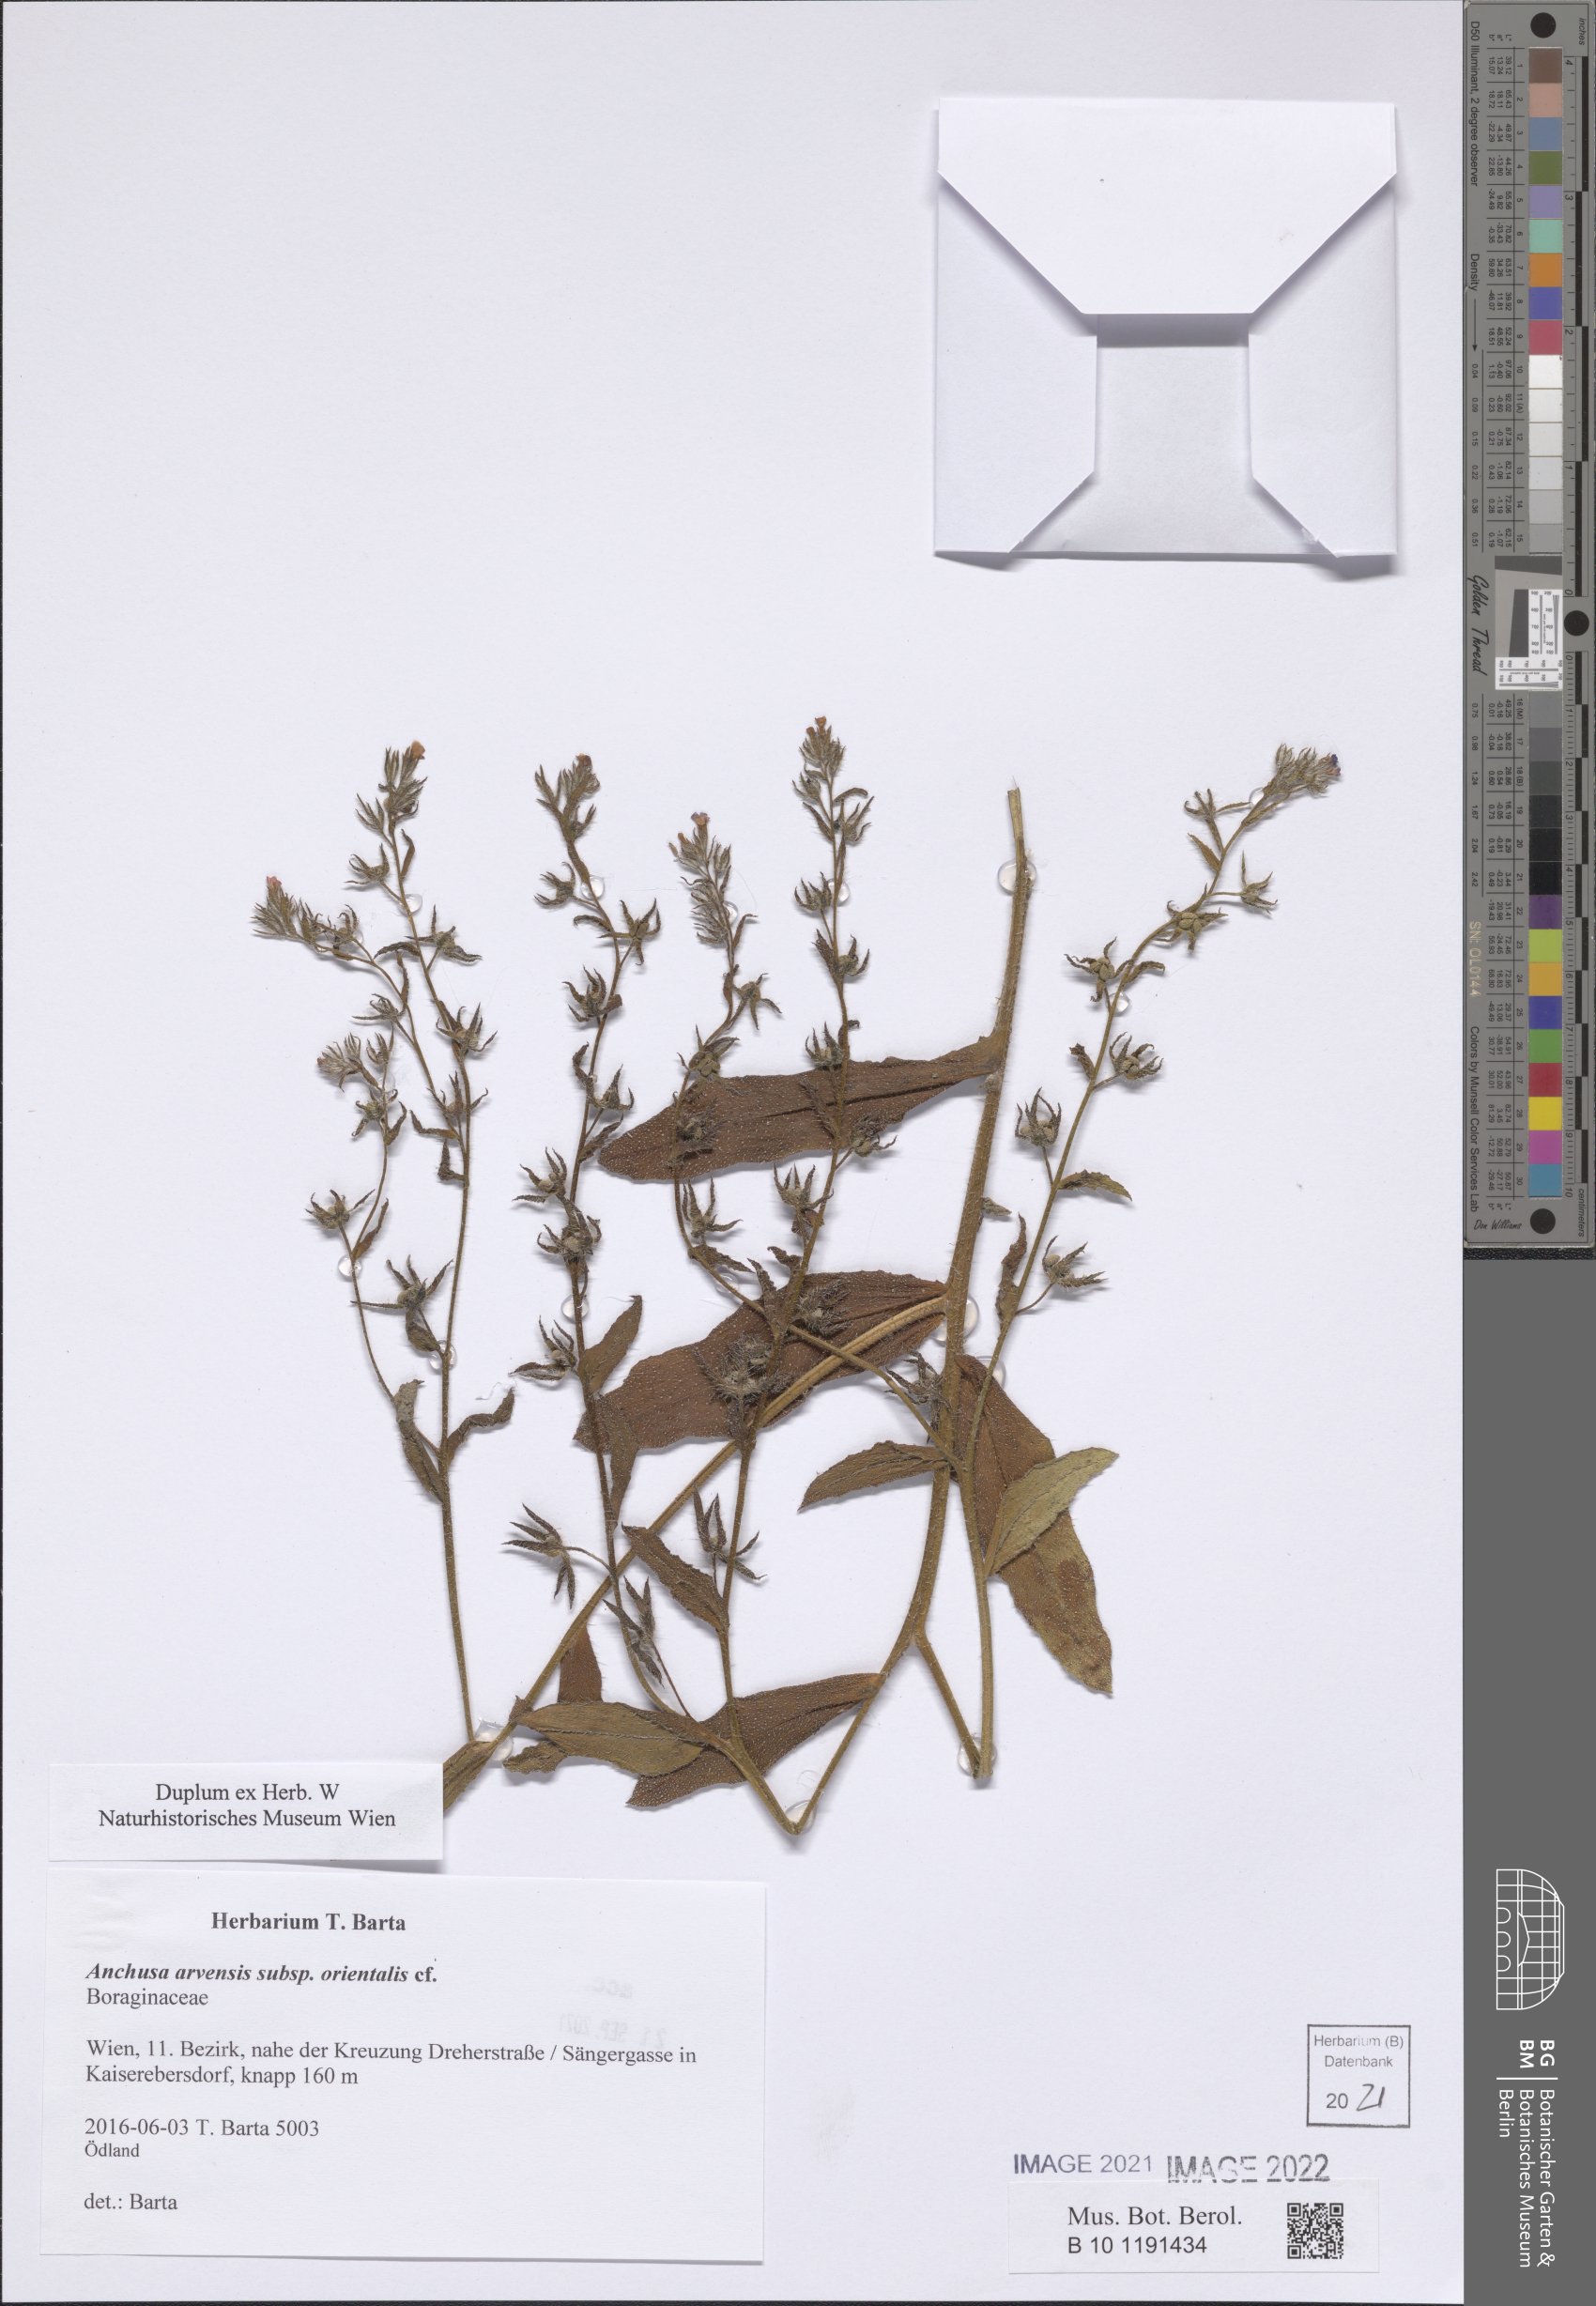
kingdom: Plantae
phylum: Tracheophyta
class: Magnoliopsida
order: Boraginales
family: Boraginaceae
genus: Lycopsis
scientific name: Lycopsis arvensis
